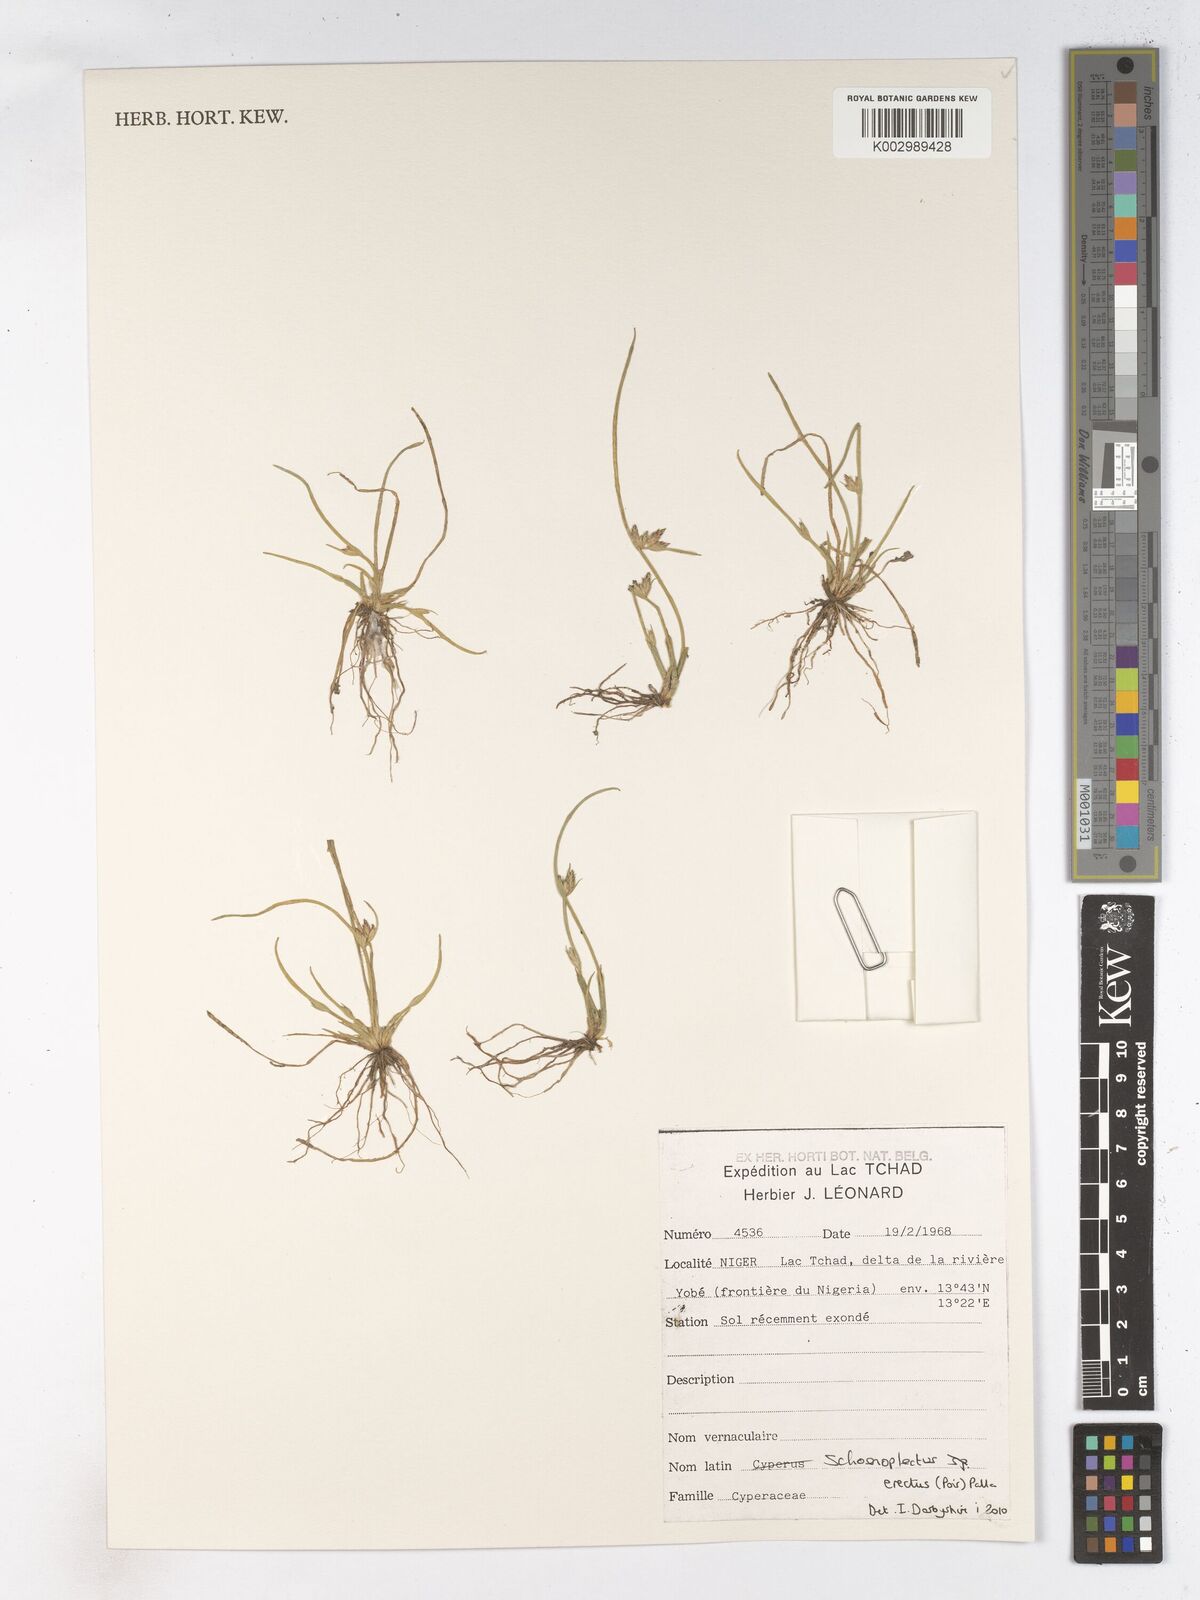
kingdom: Plantae
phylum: Tracheophyta
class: Liliopsida
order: Poales
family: Cyperaceae
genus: Schoenoplectiella
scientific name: Schoenoplectiella erecta
